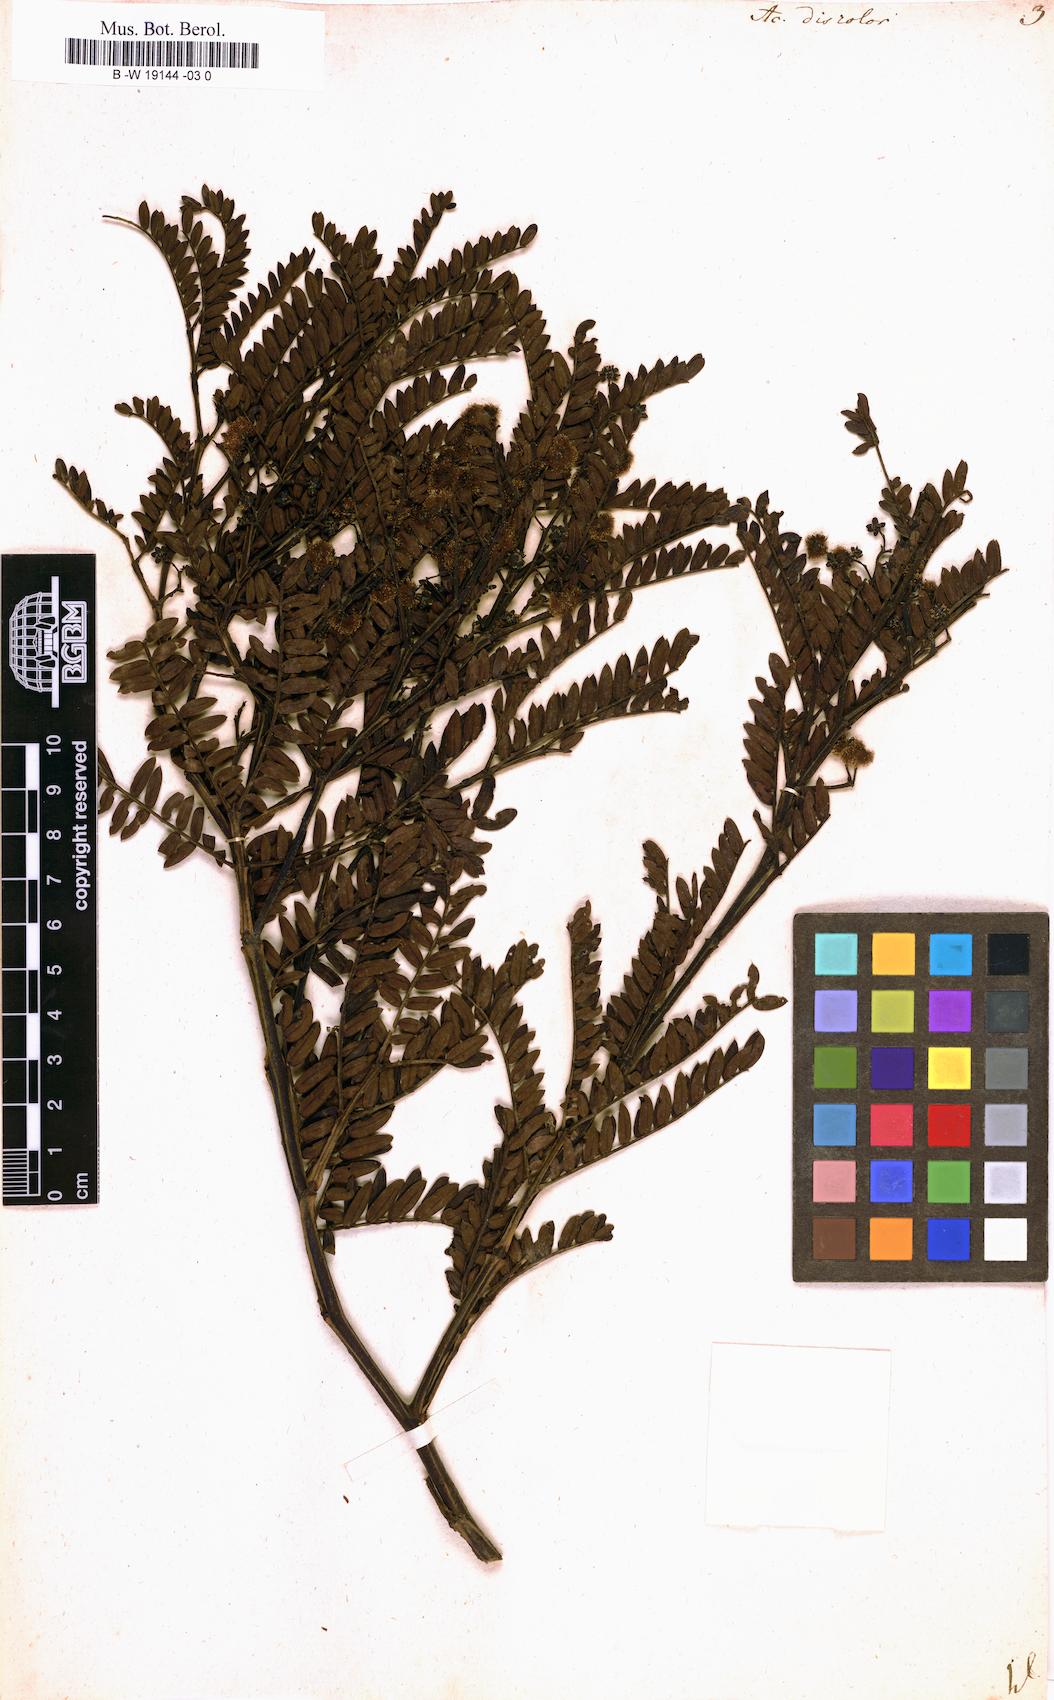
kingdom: Plantae
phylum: Tracheophyta
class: Magnoliopsida
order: Fabales
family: Fabaceae
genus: Acacia
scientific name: Acacia terminalis
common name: Cedar wattle
